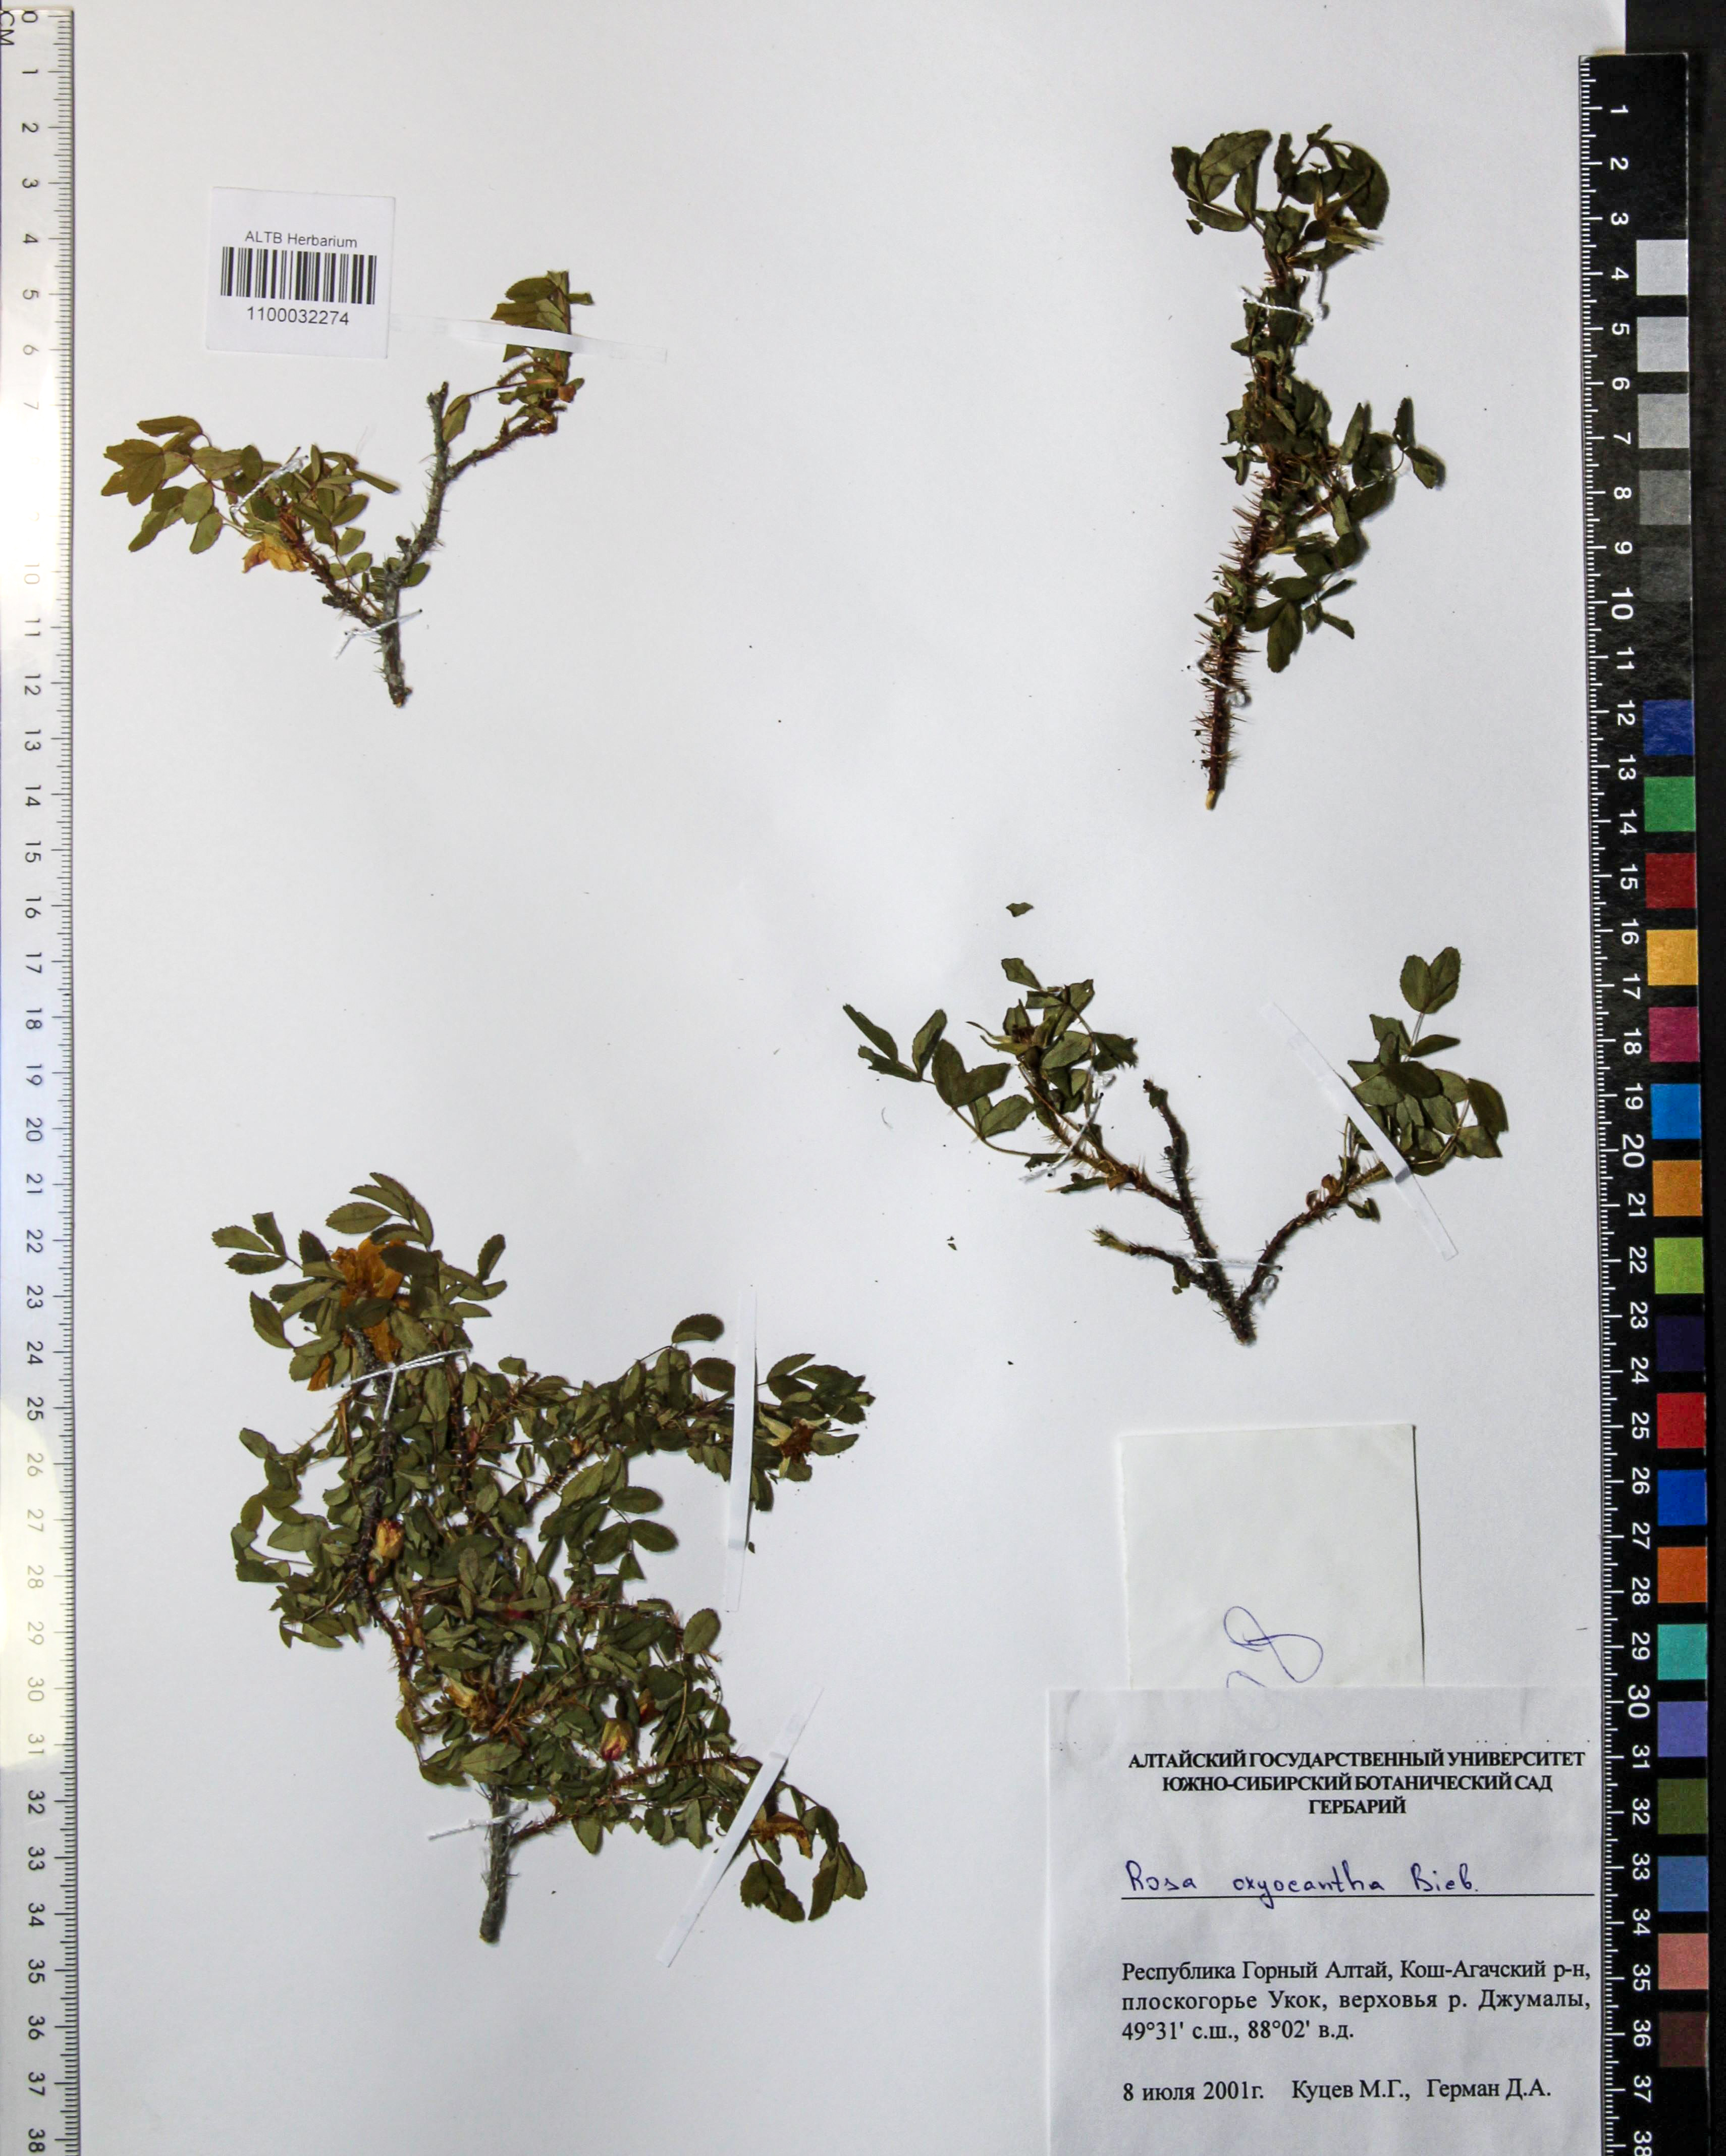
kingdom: Plantae
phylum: Tracheophyta
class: Magnoliopsida
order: Rosales
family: Rosaceae
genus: Rosa
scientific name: Rosa oxyacantha
